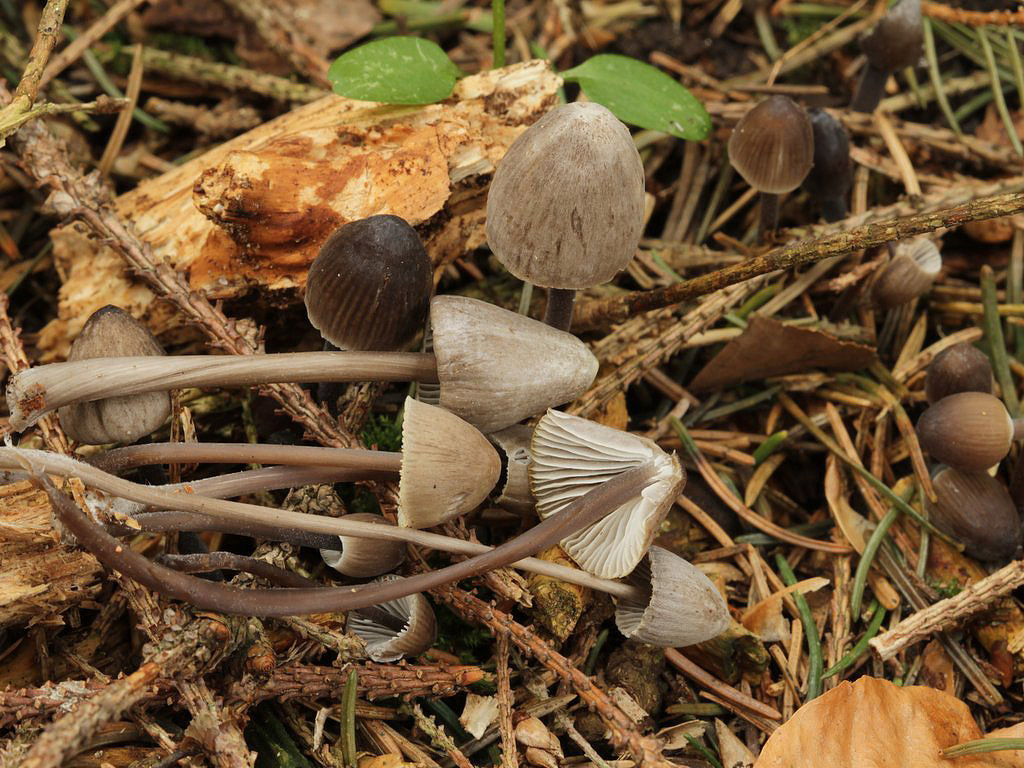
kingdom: Fungi
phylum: Basidiomycota
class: Agaricomycetes
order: Agaricales
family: Mycenaceae
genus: Mycena
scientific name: Mycena abramsii
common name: sommer-huesvamp
